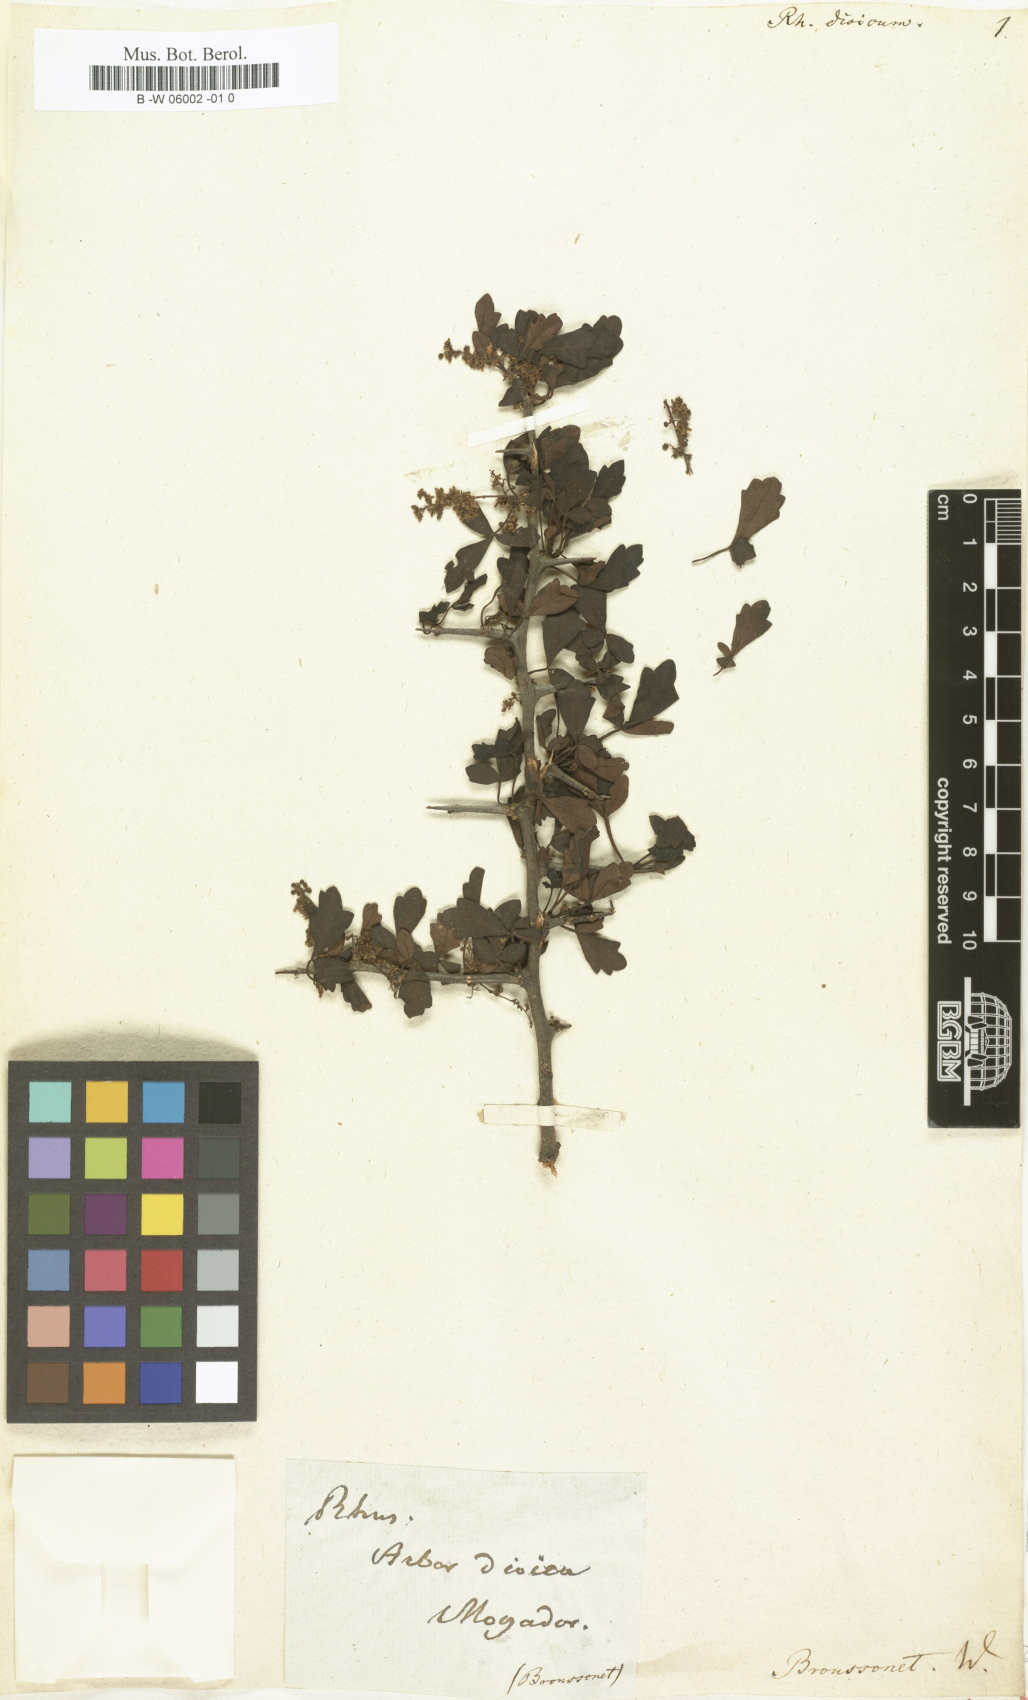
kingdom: Plantae
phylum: Tracheophyta
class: Magnoliopsida
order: Sapindales
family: Anacardiaceae
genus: Searsia
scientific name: Searsia tripartita
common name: Tripartite sumac
